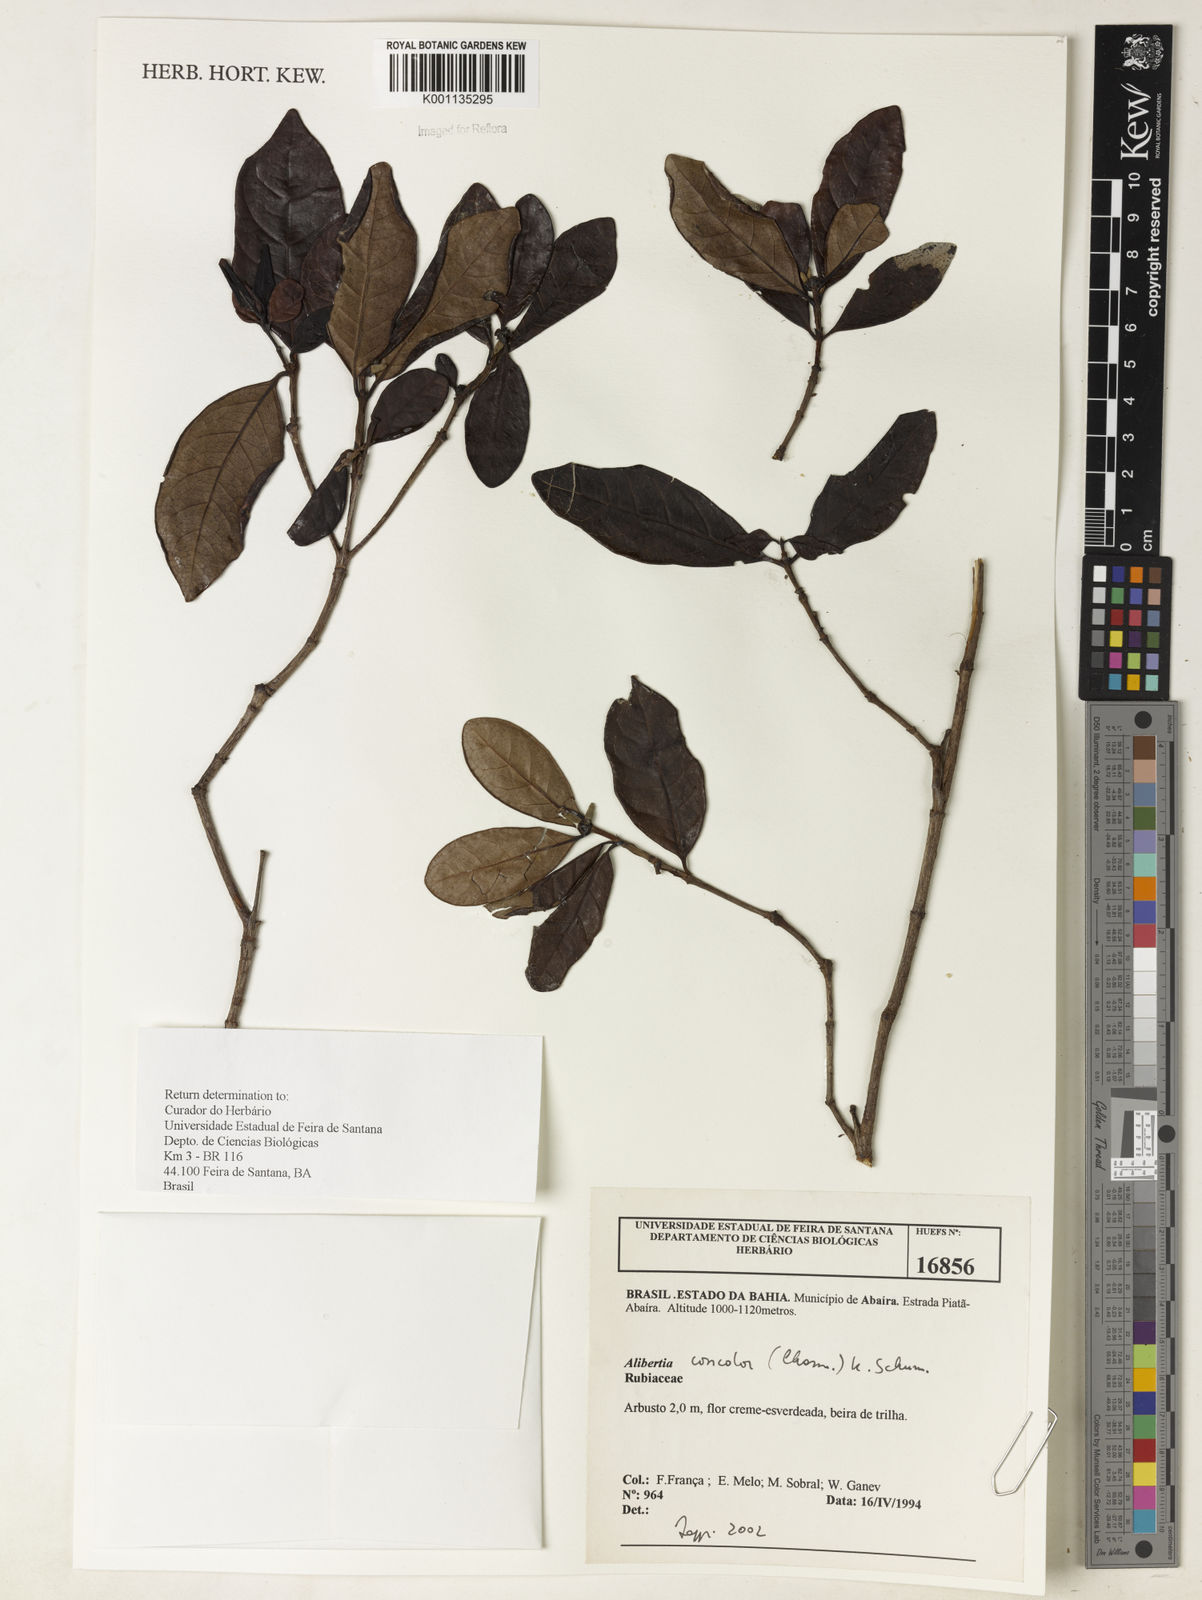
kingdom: Plantae
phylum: Tracheophyta
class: Magnoliopsida
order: Gentianales
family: Rubiaceae
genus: Cordiera
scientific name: Cordiera concolor
